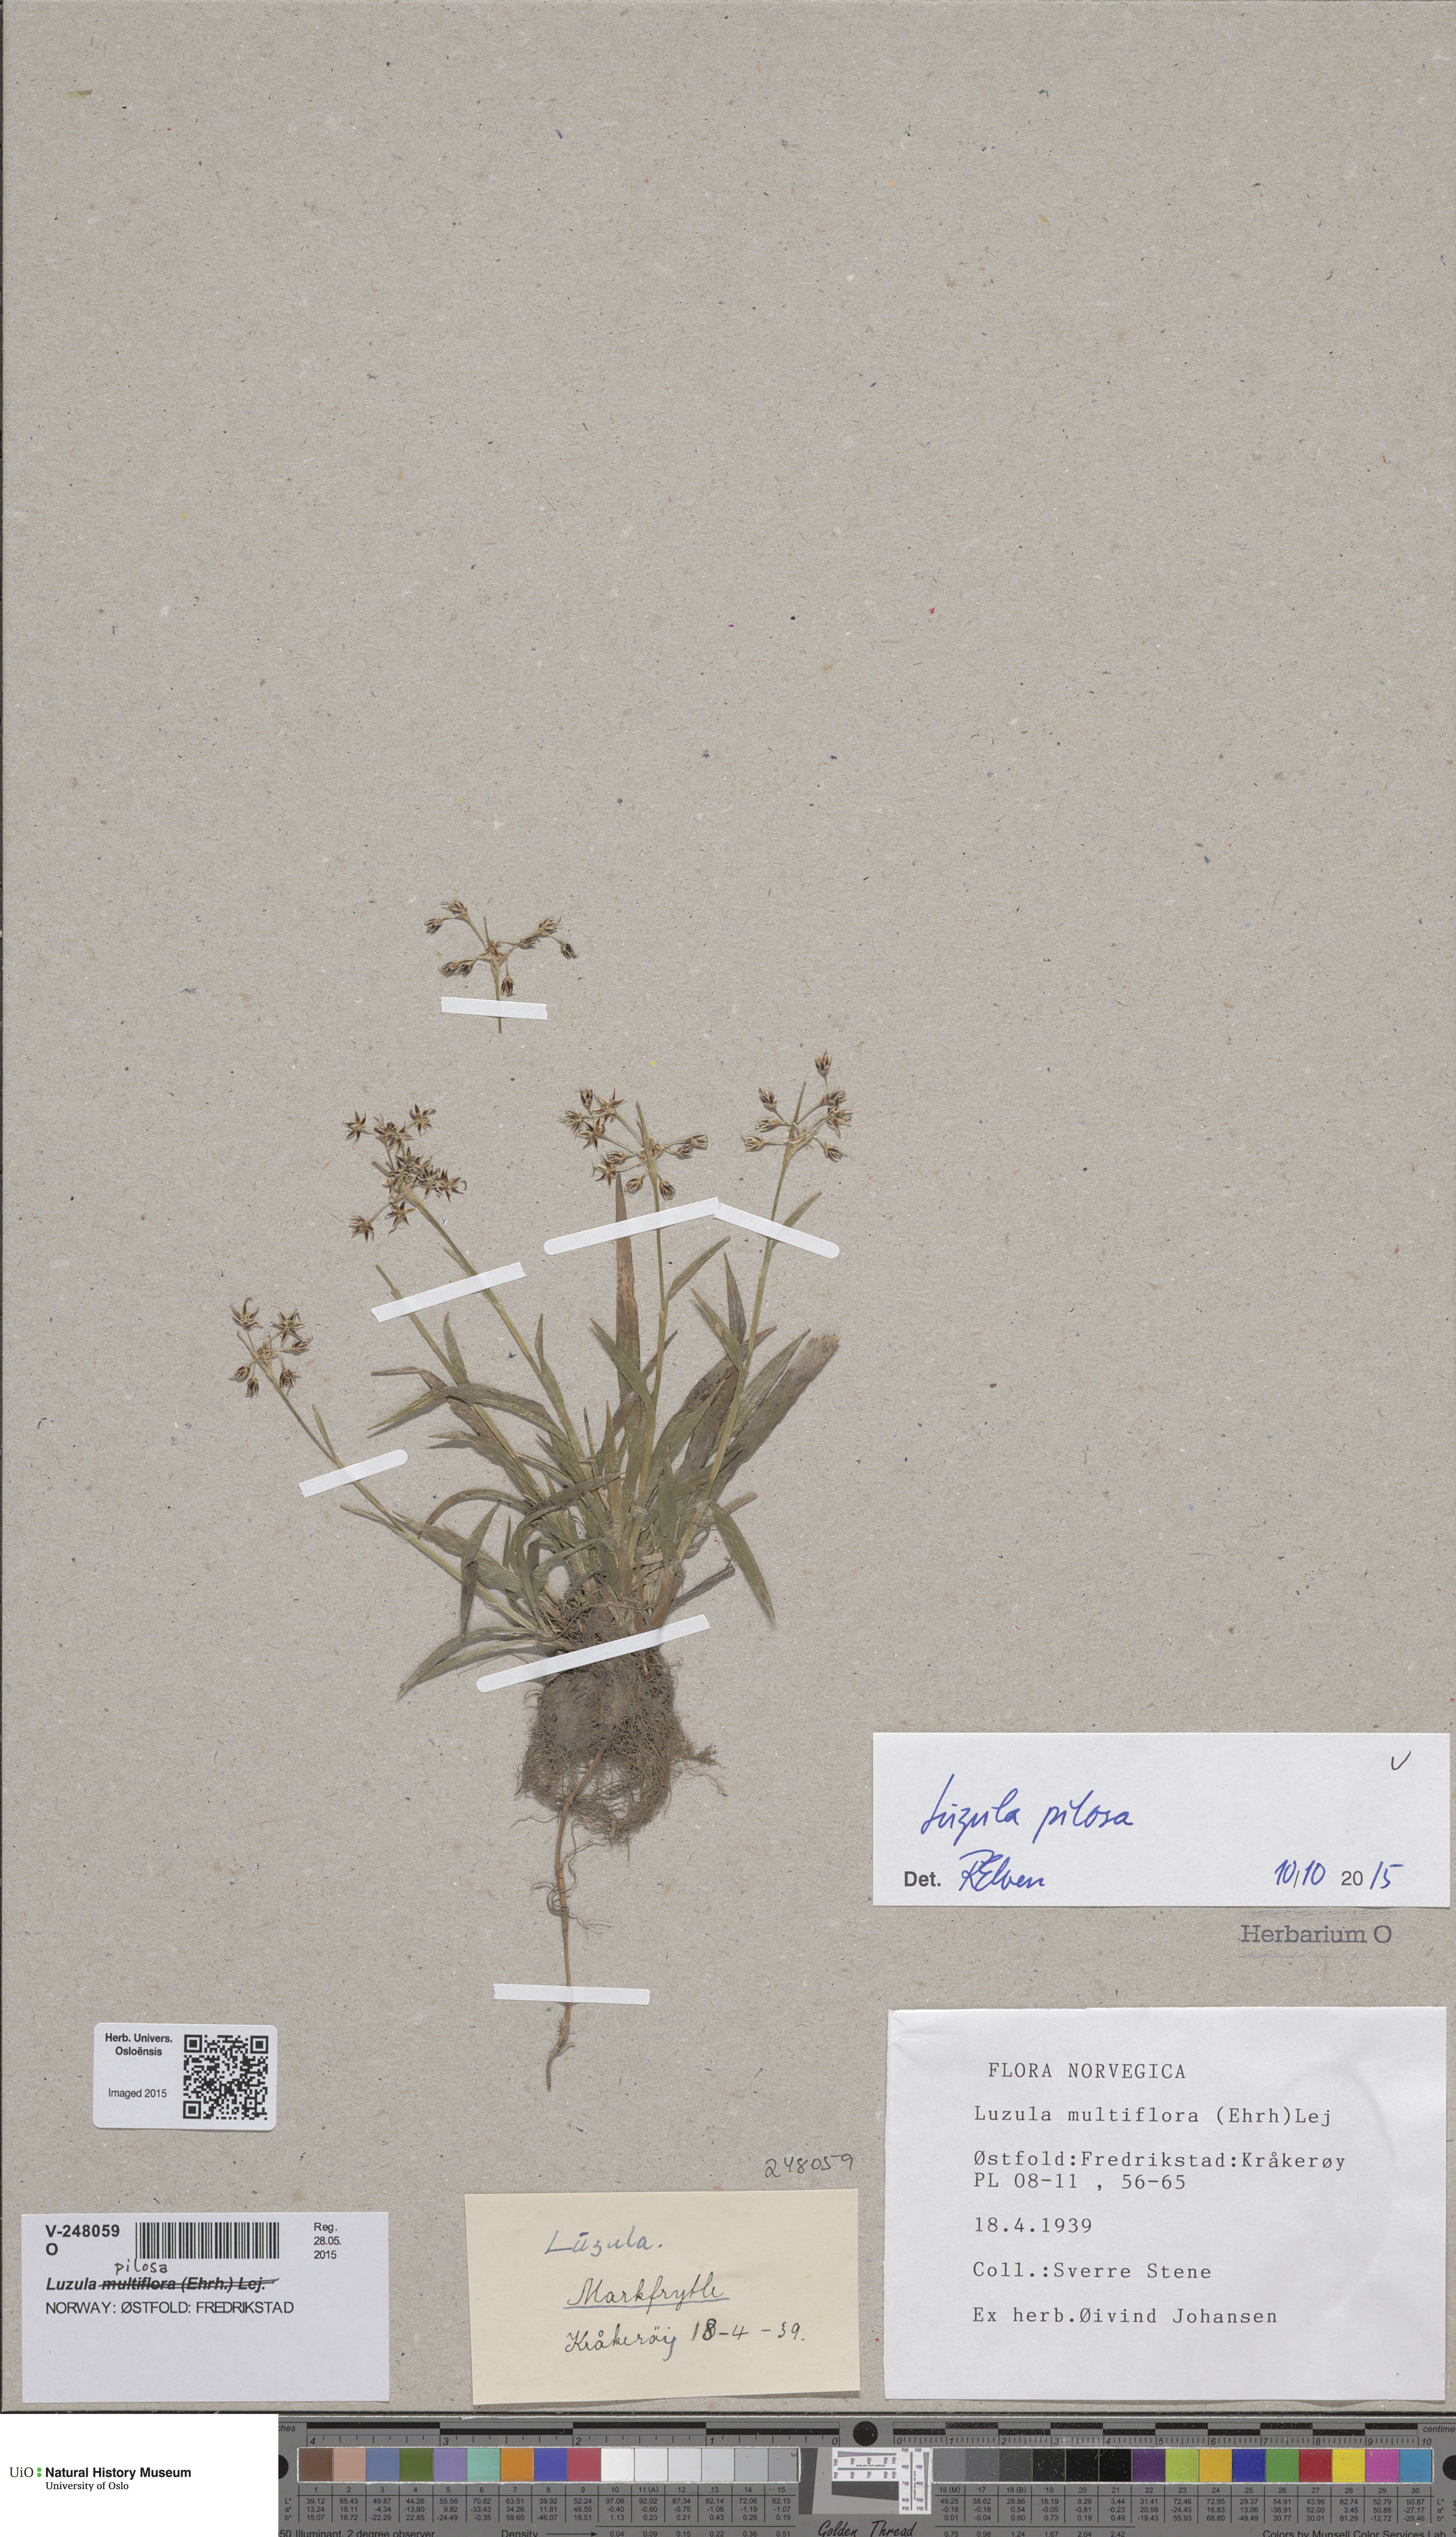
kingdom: Plantae
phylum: Tracheophyta
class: Liliopsida
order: Poales
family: Juncaceae
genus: Luzula
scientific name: Luzula pilosa
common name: Hairy wood-rush
